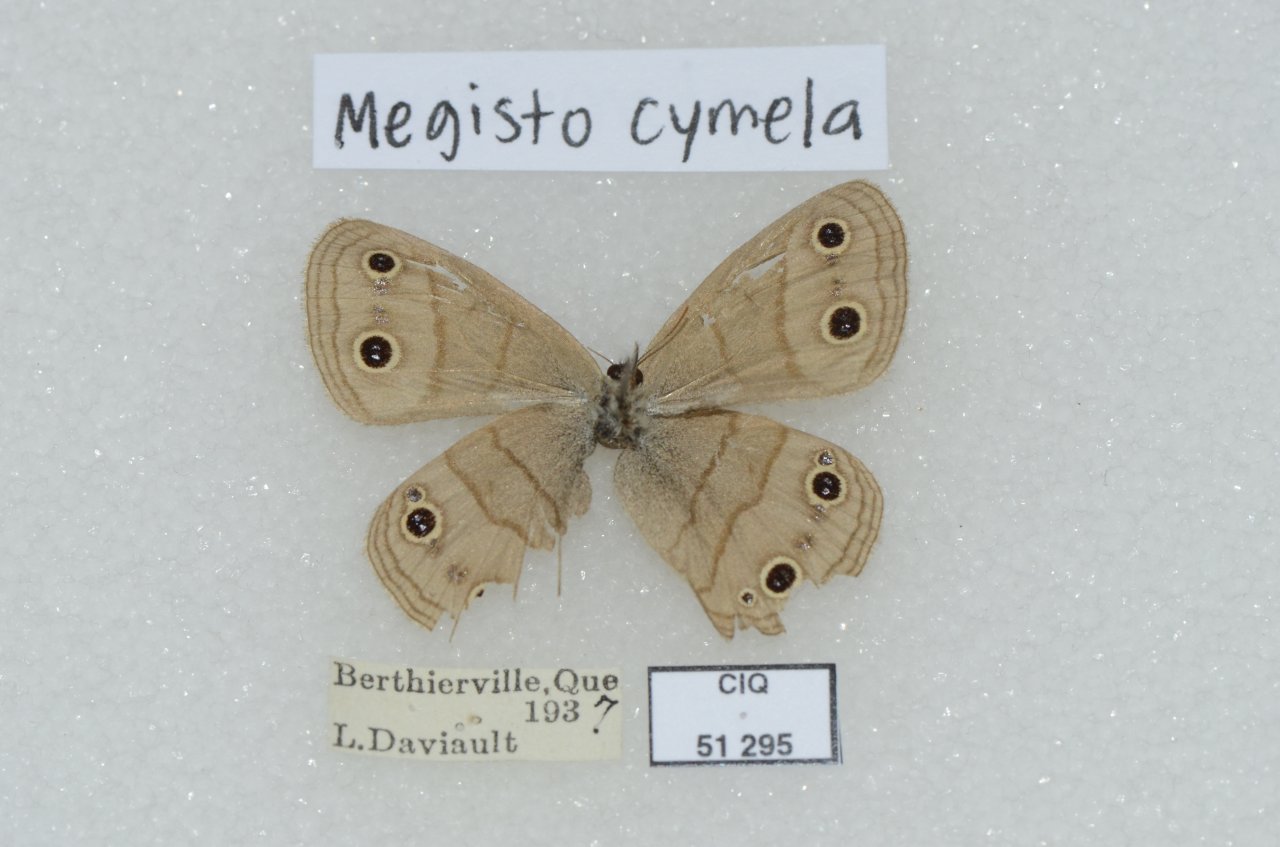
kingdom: Animalia
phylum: Arthropoda
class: Insecta
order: Lepidoptera
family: Nymphalidae
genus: Euptychia
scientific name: Euptychia cymela
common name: Little Wood Satyr
